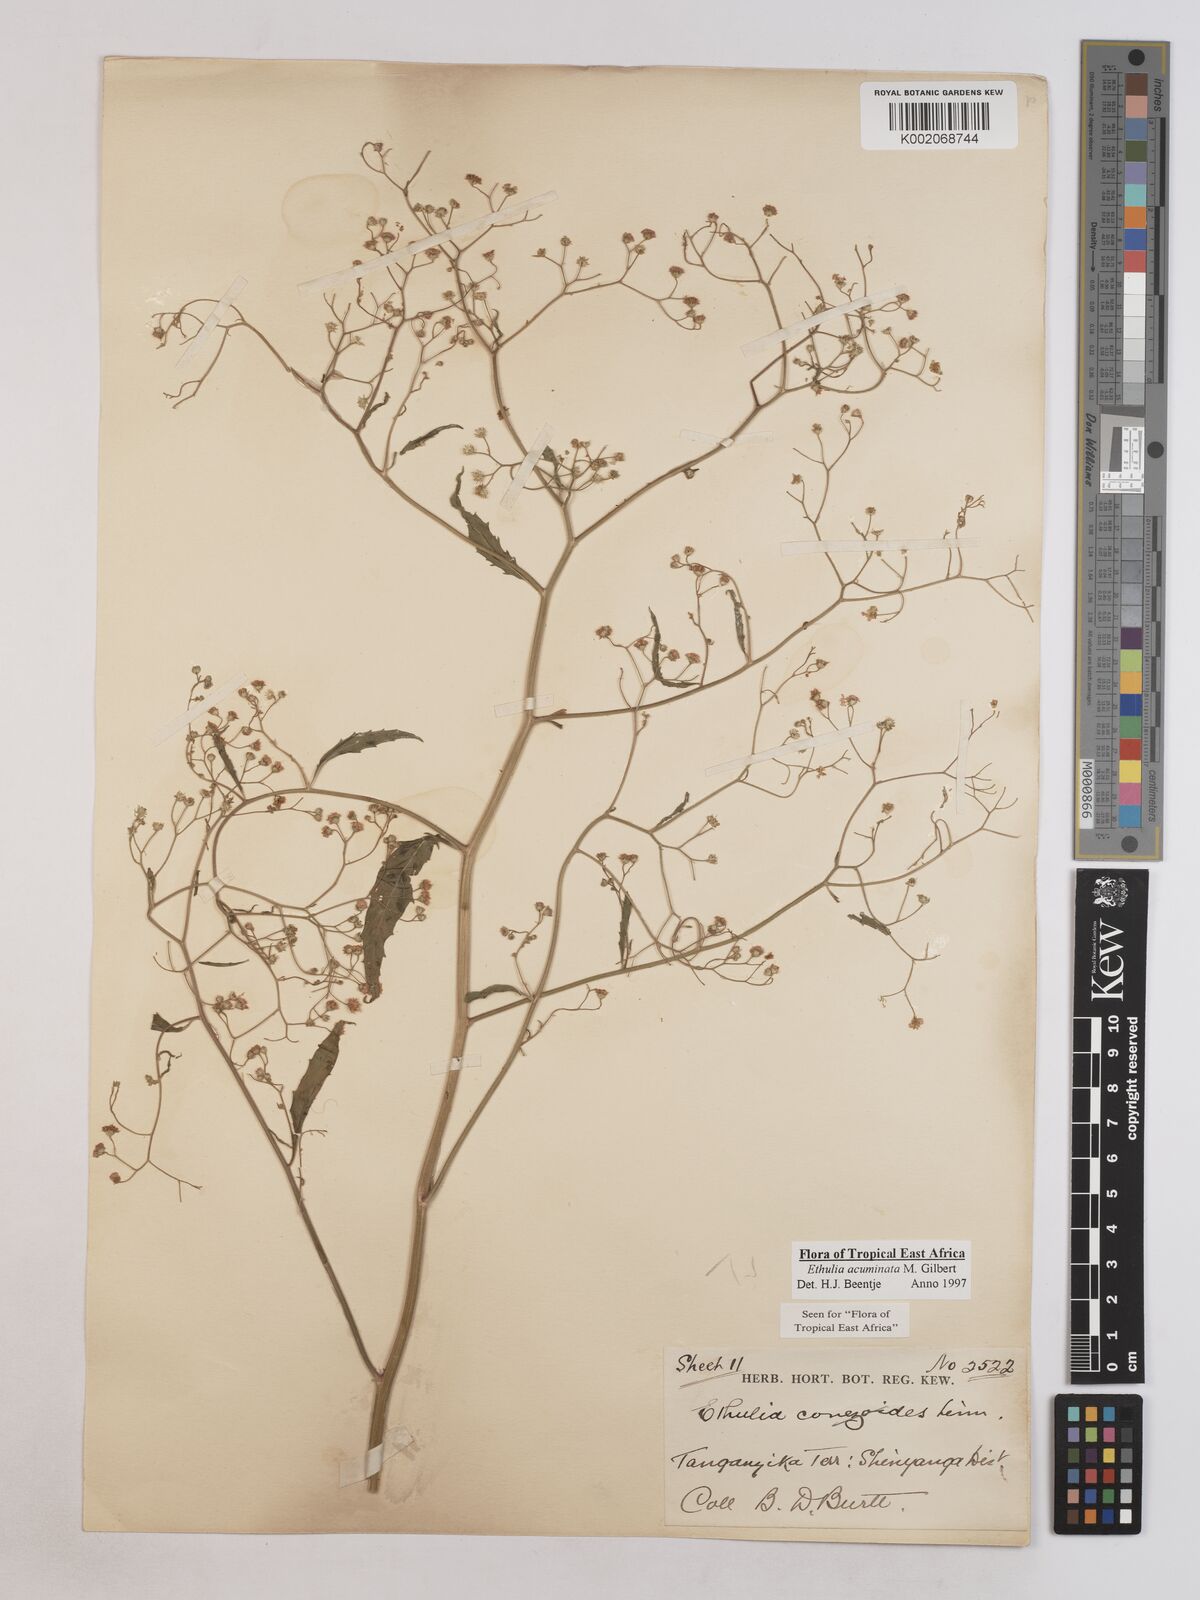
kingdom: Plantae
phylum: Tracheophyta
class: Magnoliopsida
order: Asterales
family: Asteraceae
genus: Ethulia
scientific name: Ethulia acuminata
